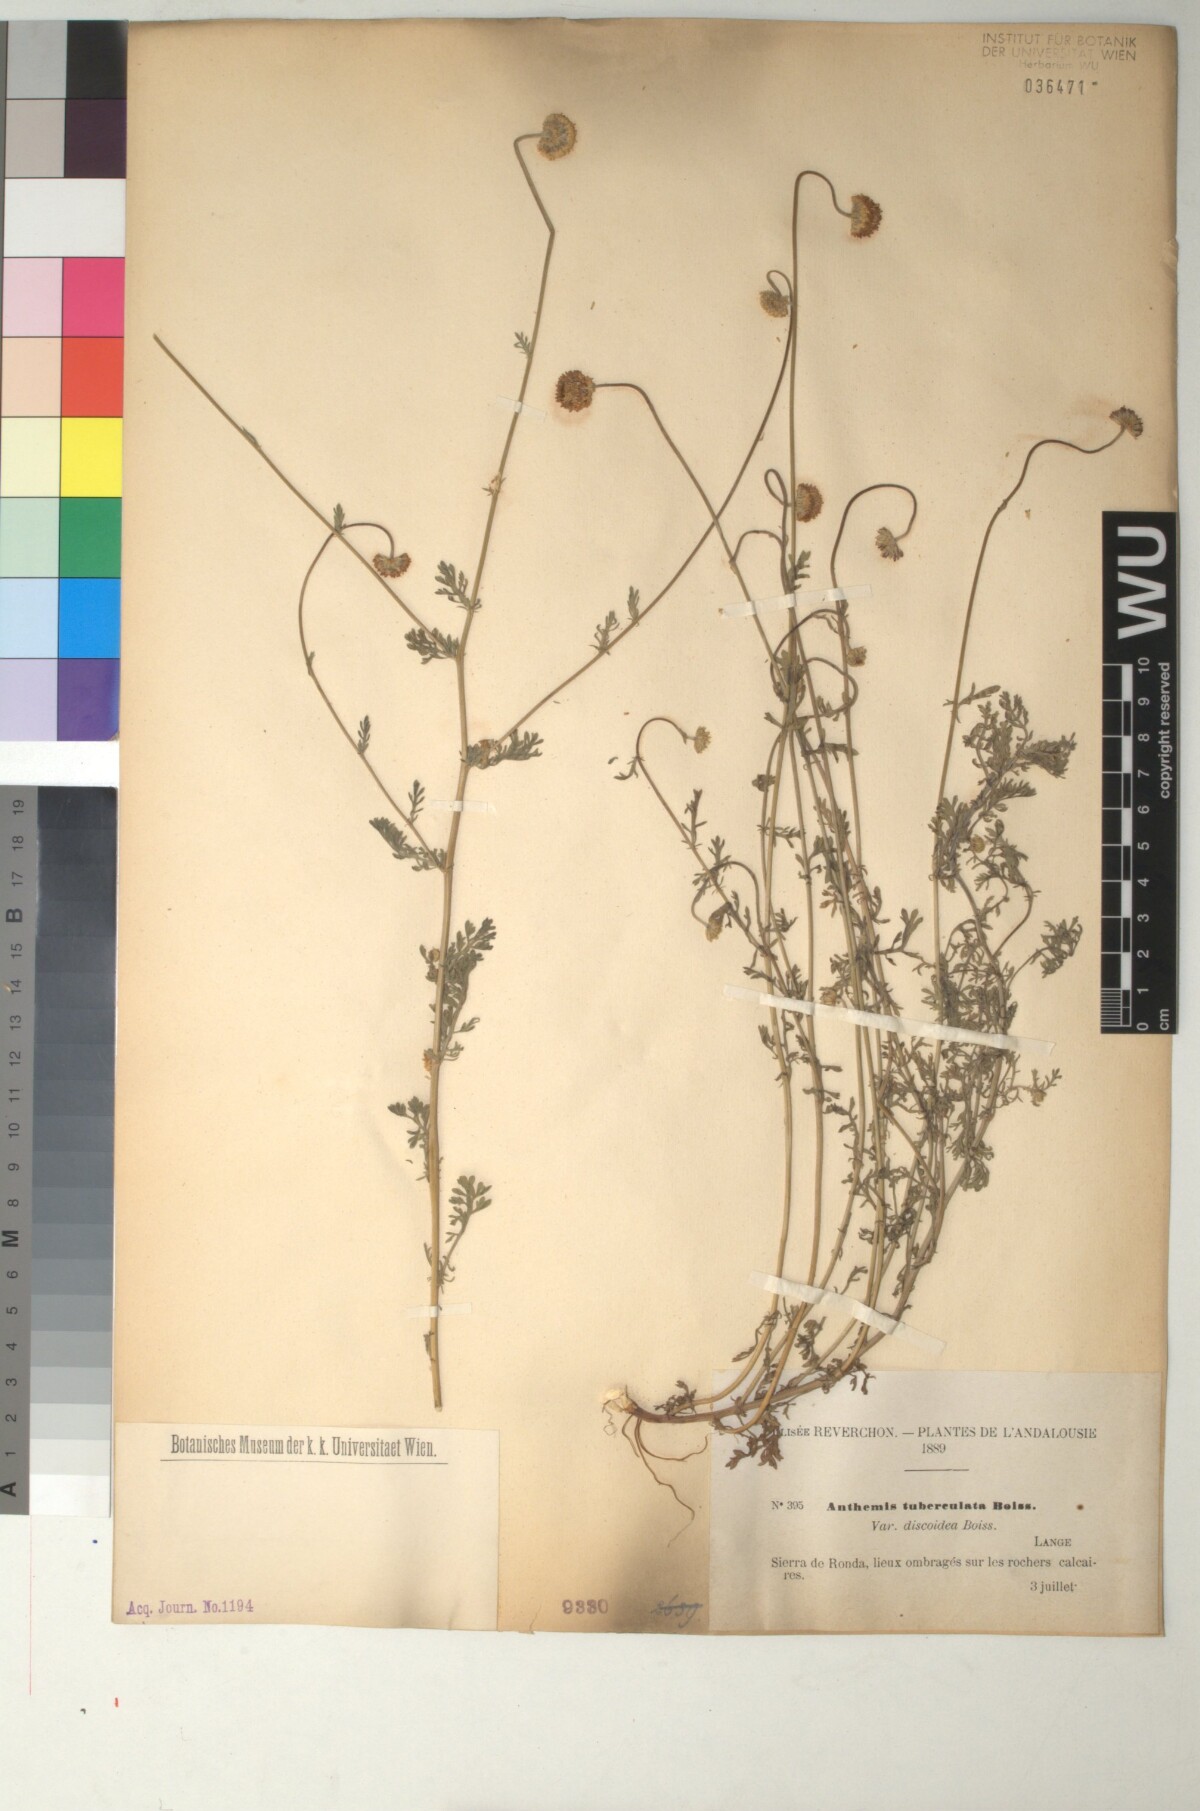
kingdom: Plantae
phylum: Tracheophyta
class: Magnoliopsida
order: Asterales
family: Asteraceae
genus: Anthemis
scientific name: Anthemis pedunculata
